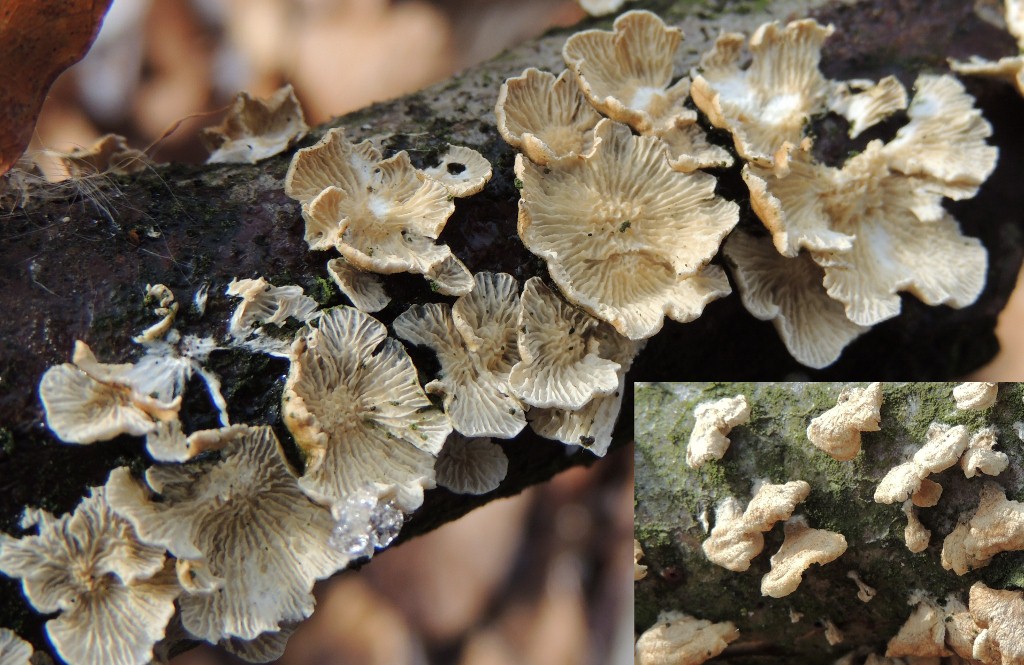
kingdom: Fungi
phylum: Basidiomycota
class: Agaricomycetes
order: Amylocorticiales
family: Amylocorticiaceae
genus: Plicaturopsis
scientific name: Plicaturopsis crispa
